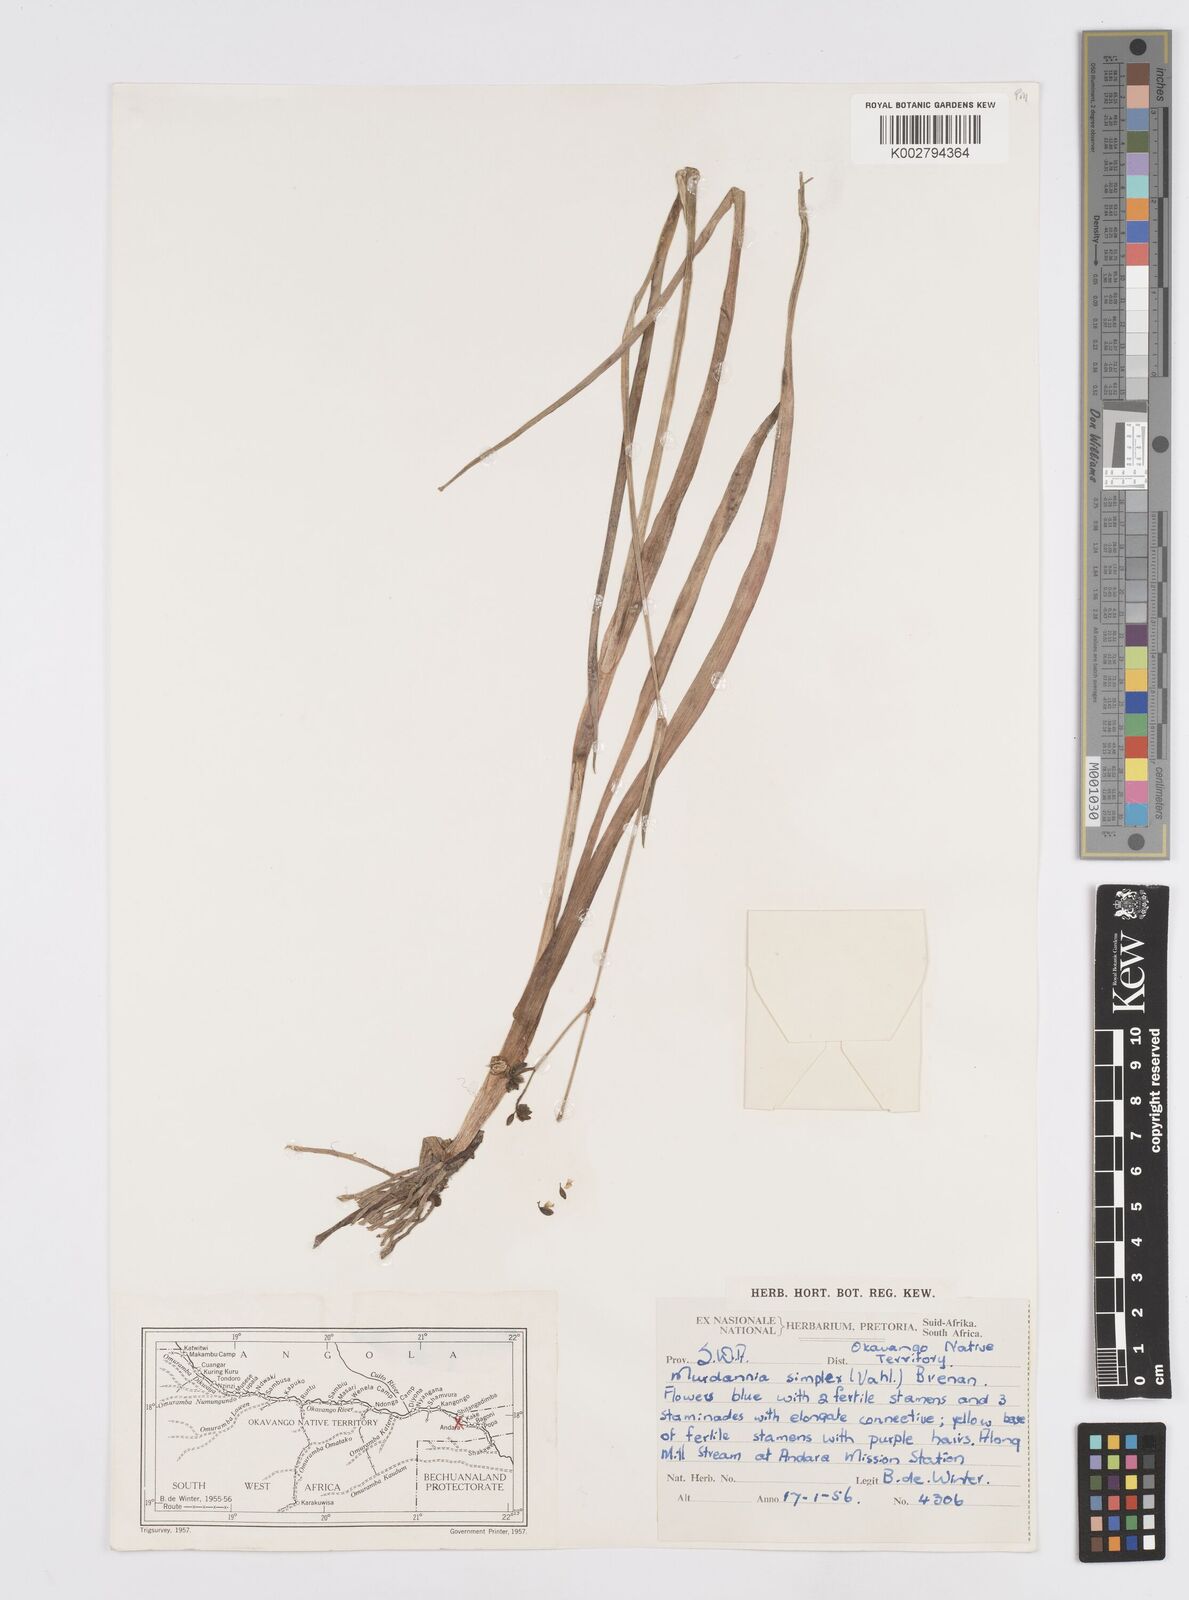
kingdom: Plantae
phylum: Tracheophyta
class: Liliopsida
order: Commelinales
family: Commelinaceae
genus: Murdannia
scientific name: Murdannia simplex
